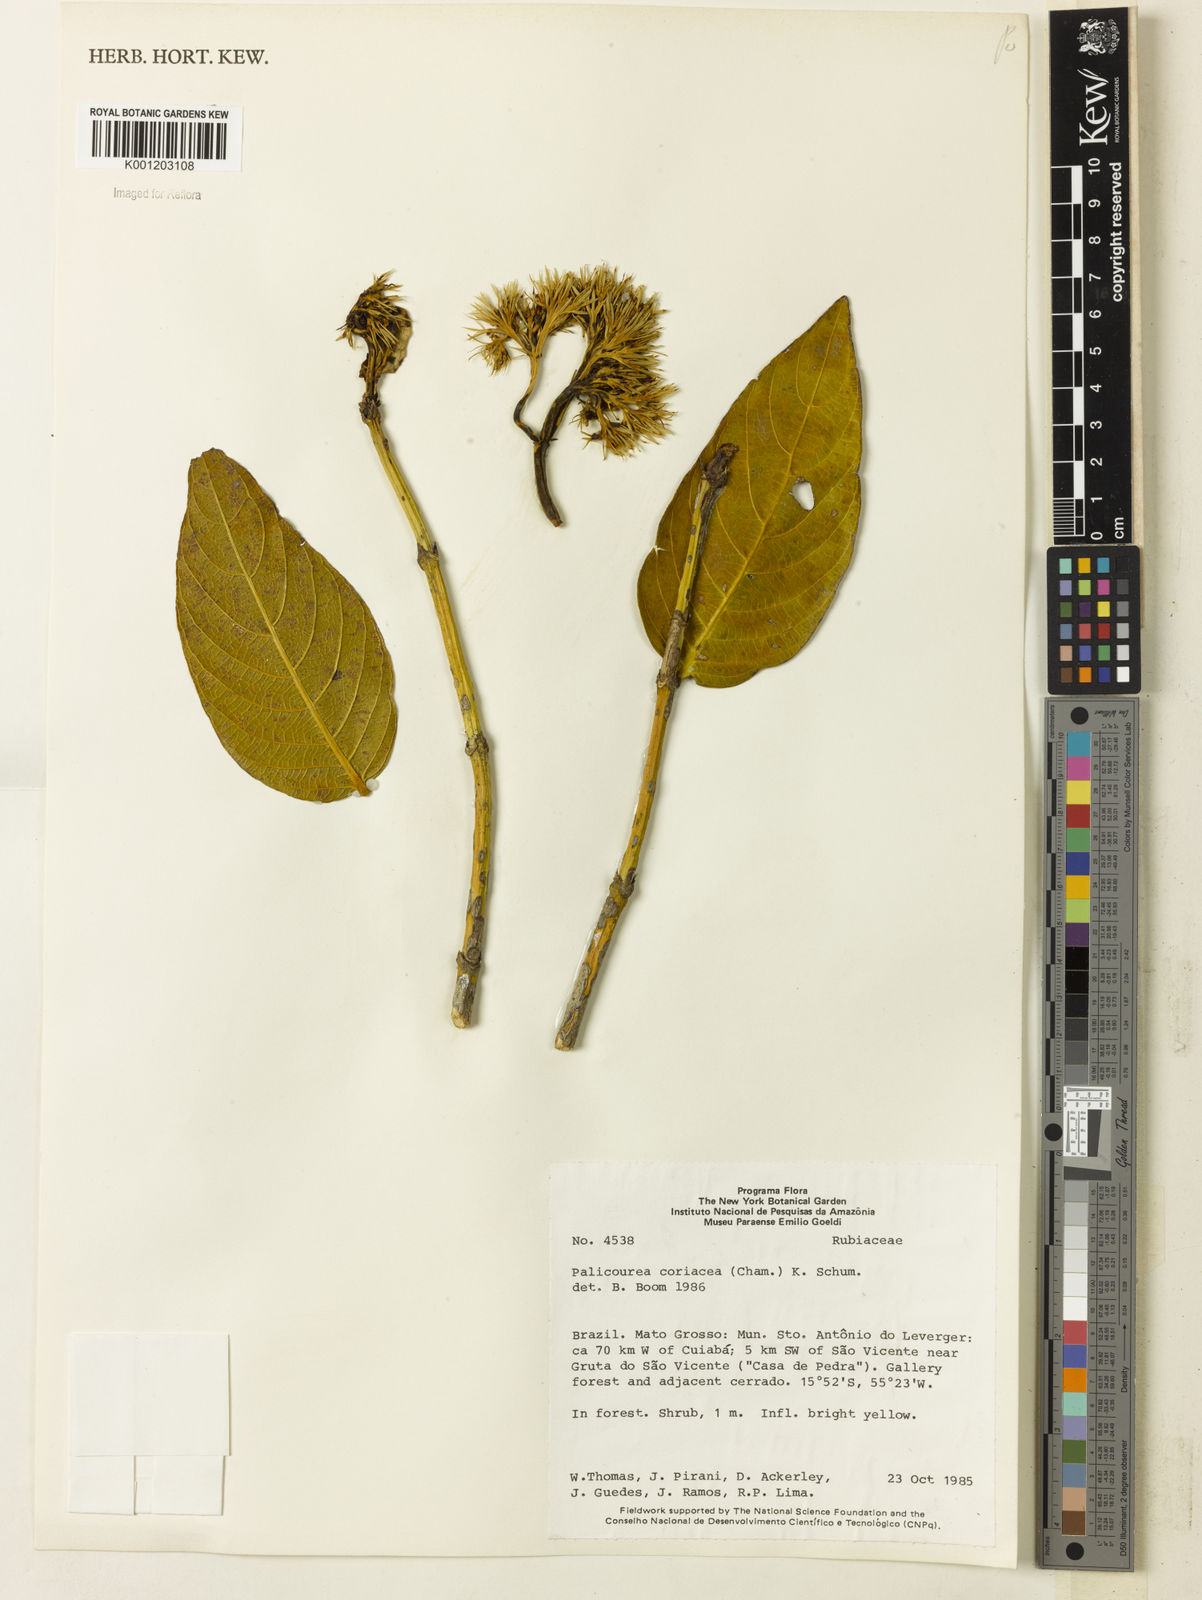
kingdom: Plantae
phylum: Tracheophyta
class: Magnoliopsida
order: Gentianales
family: Rubiaceae
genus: Palicourea
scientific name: Palicourea coriacea
